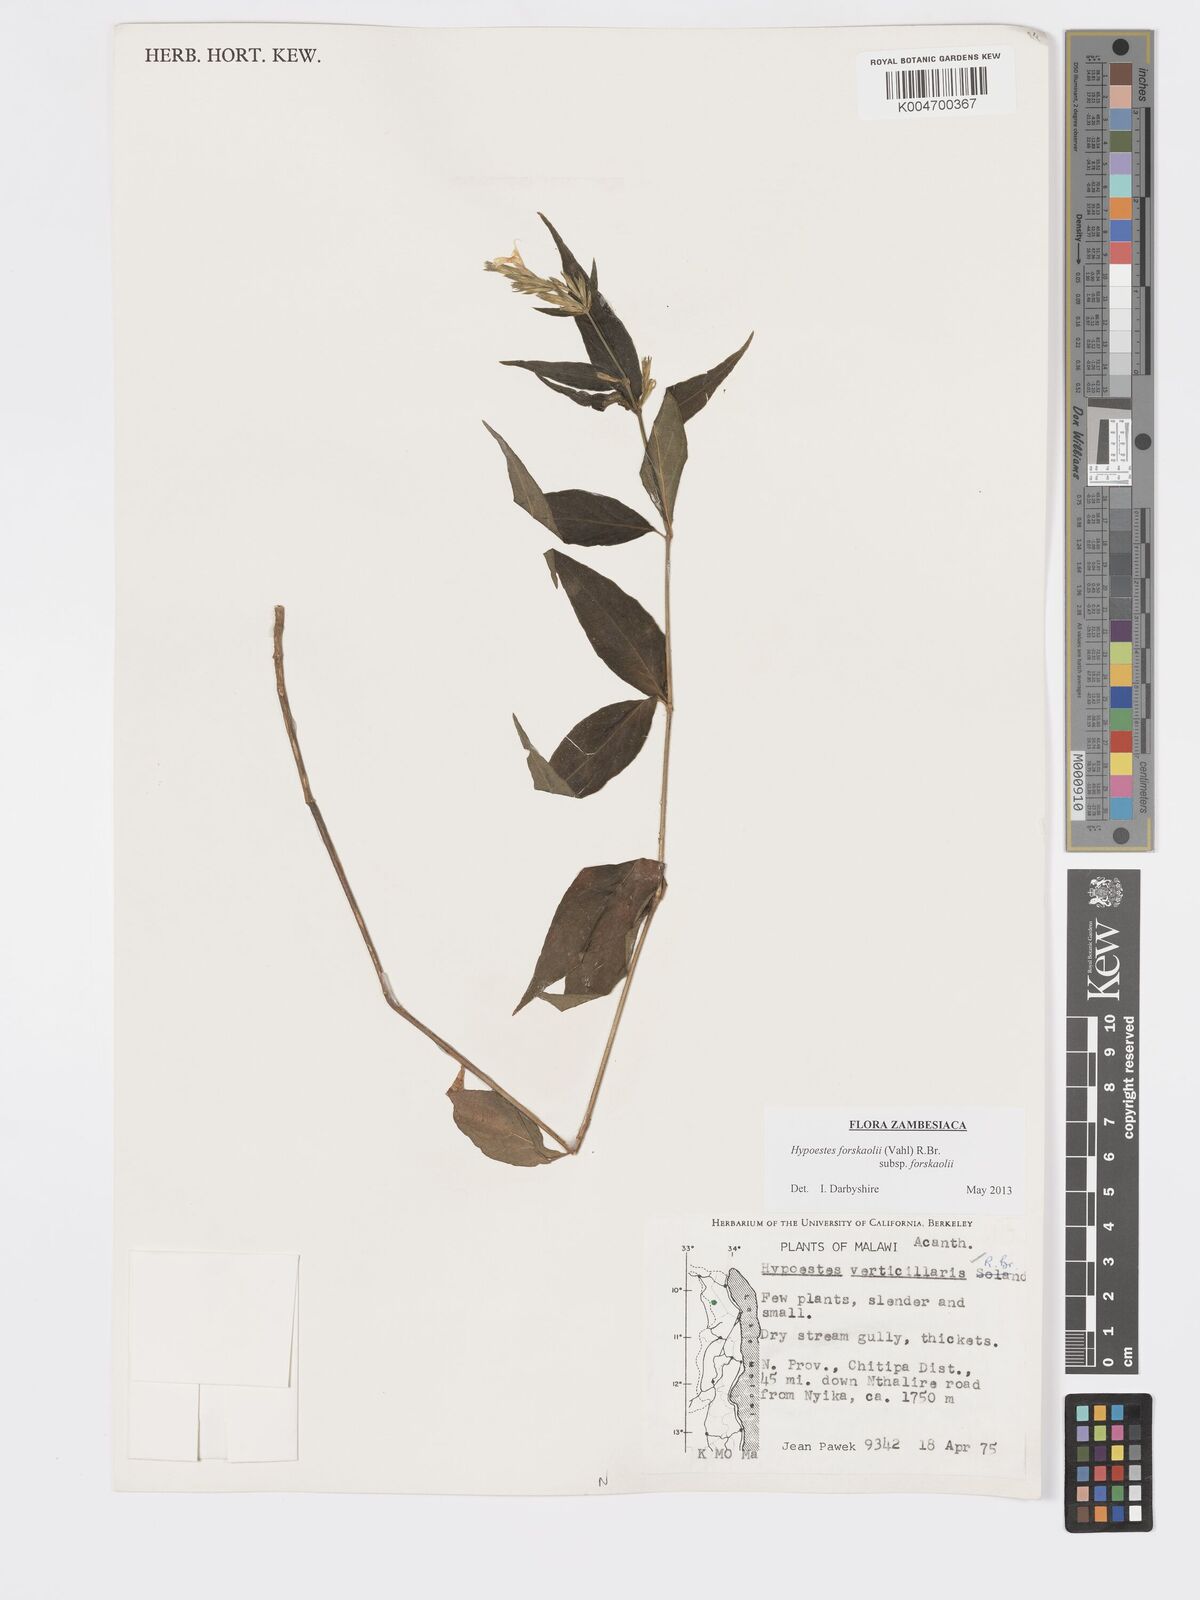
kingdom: Plantae
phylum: Tracheophyta
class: Magnoliopsida
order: Lamiales
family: Acanthaceae
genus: Hypoestes
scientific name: Hypoestes forskaolii
